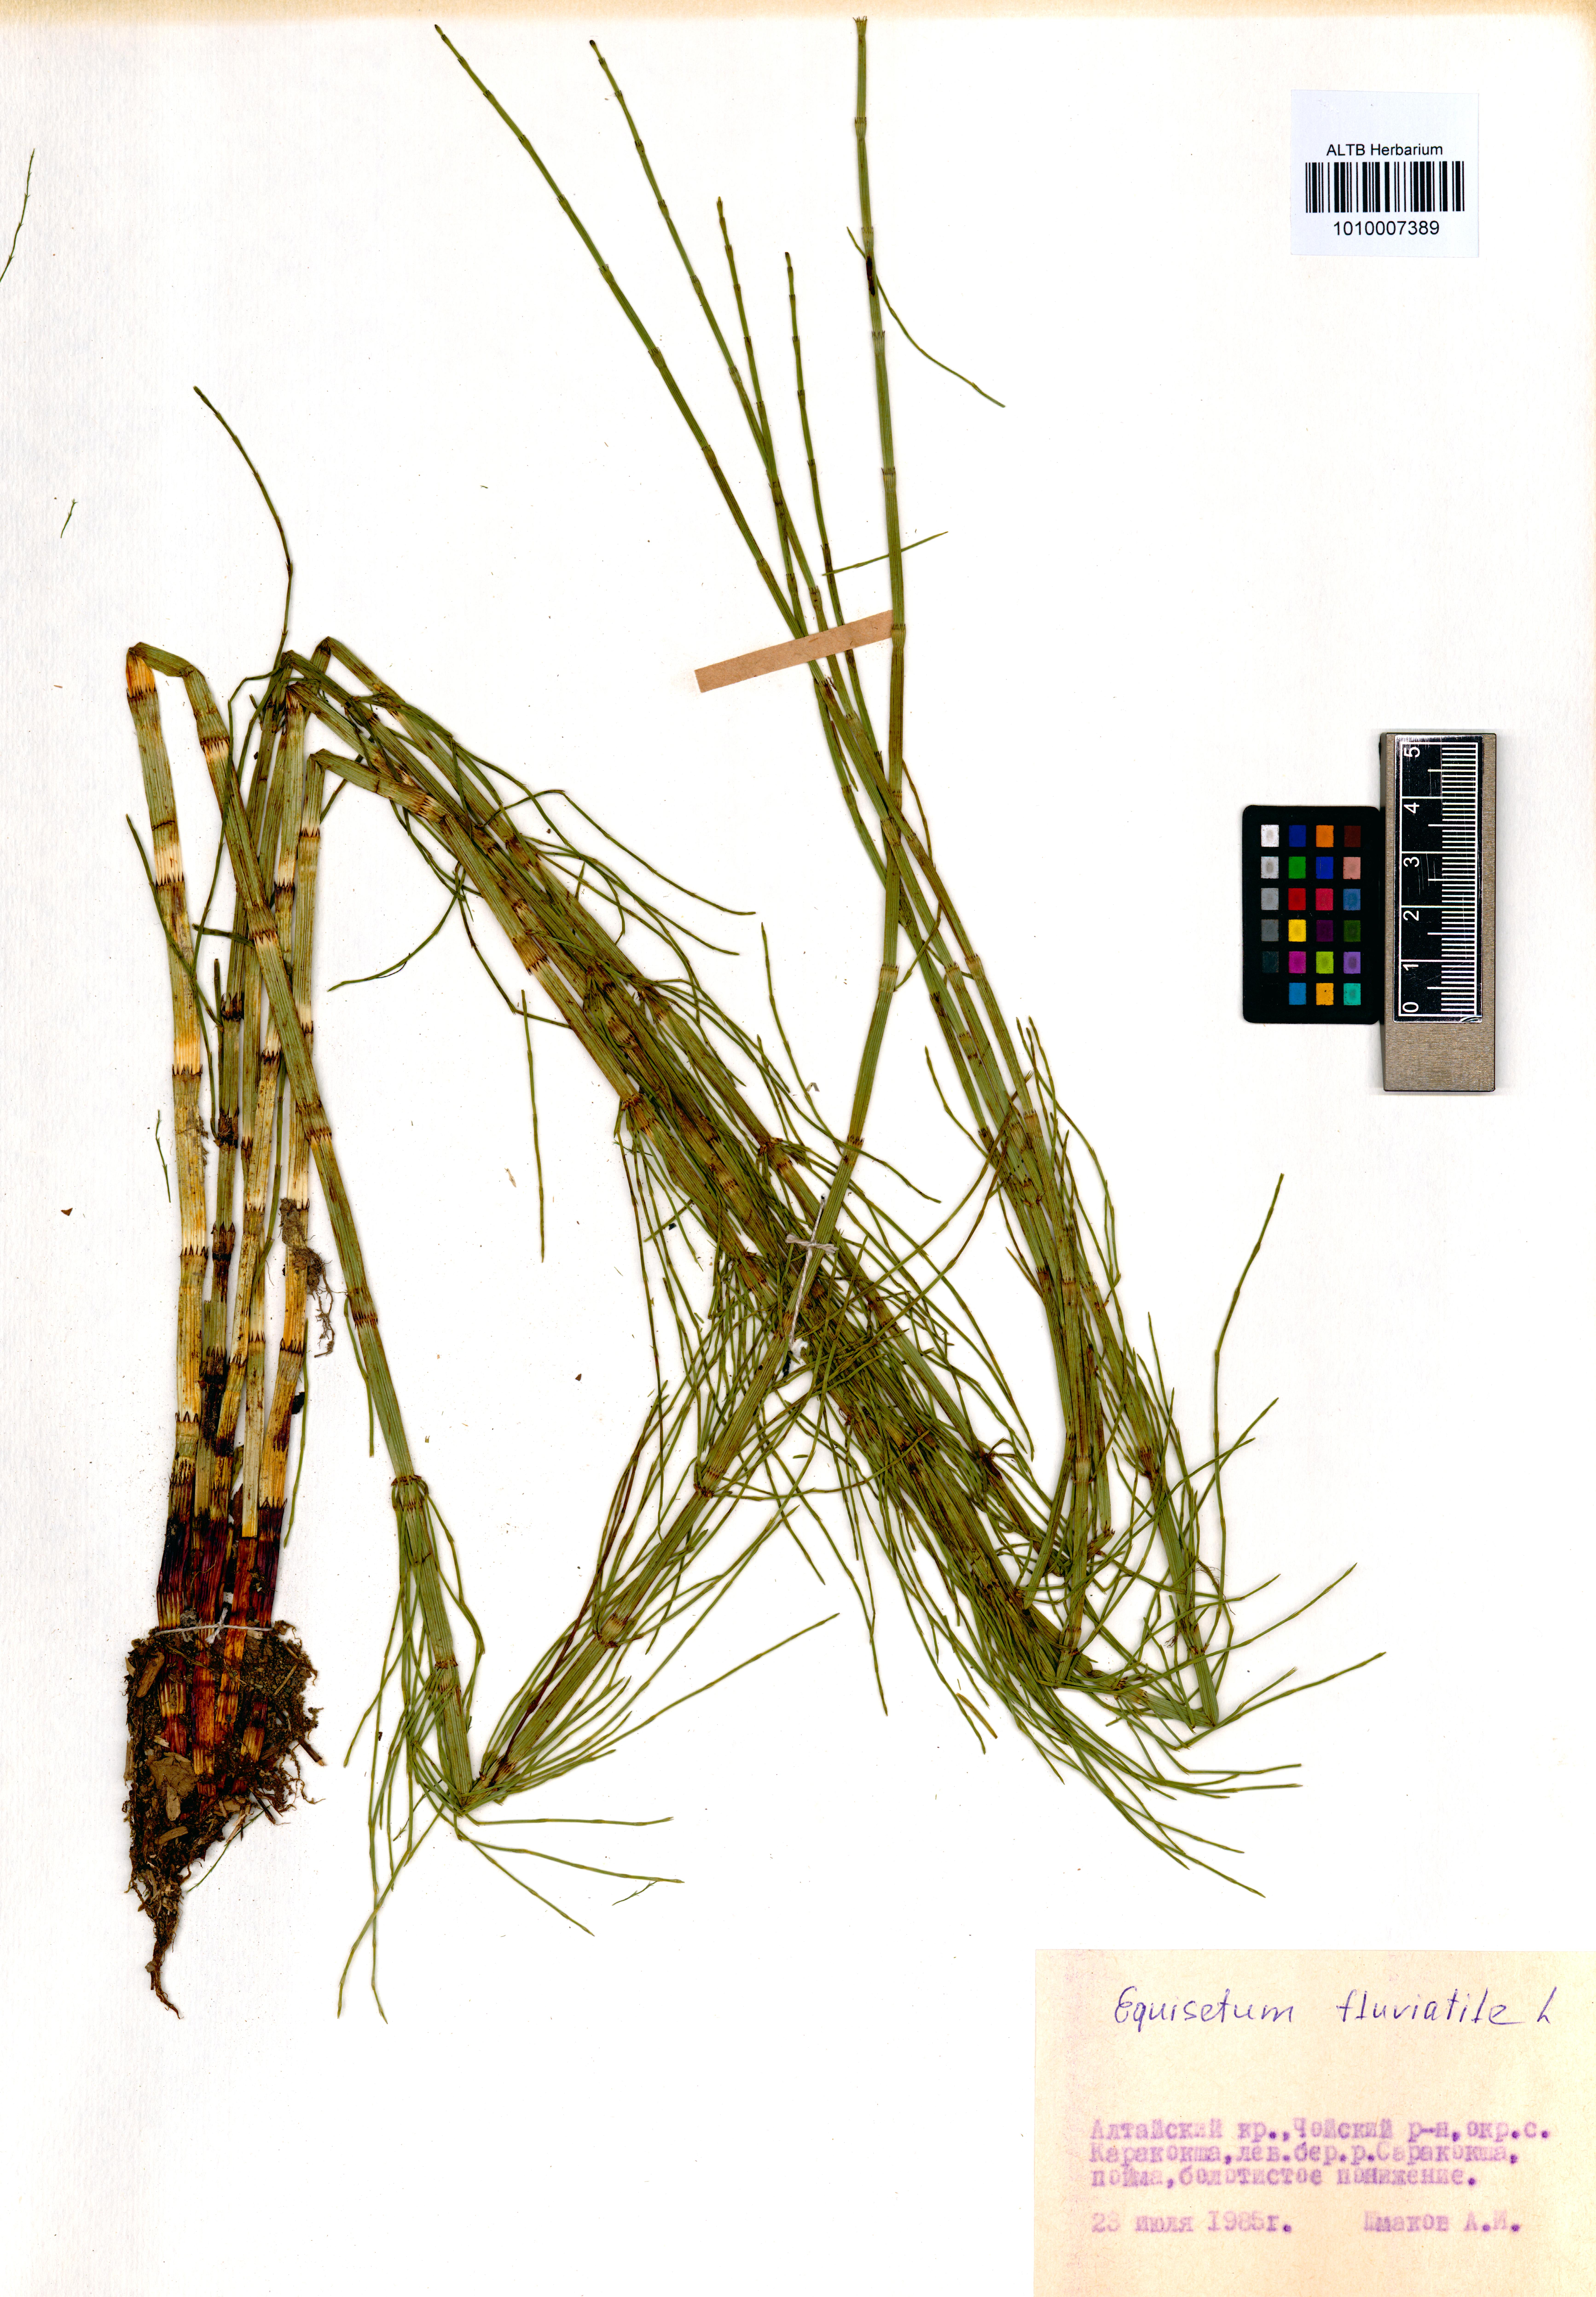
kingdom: Plantae
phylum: Tracheophyta
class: Polypodiopsida
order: Equisetales
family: Equisetaceae
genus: Equisetum
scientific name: Equisetum fluviatile
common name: Water horsetail
